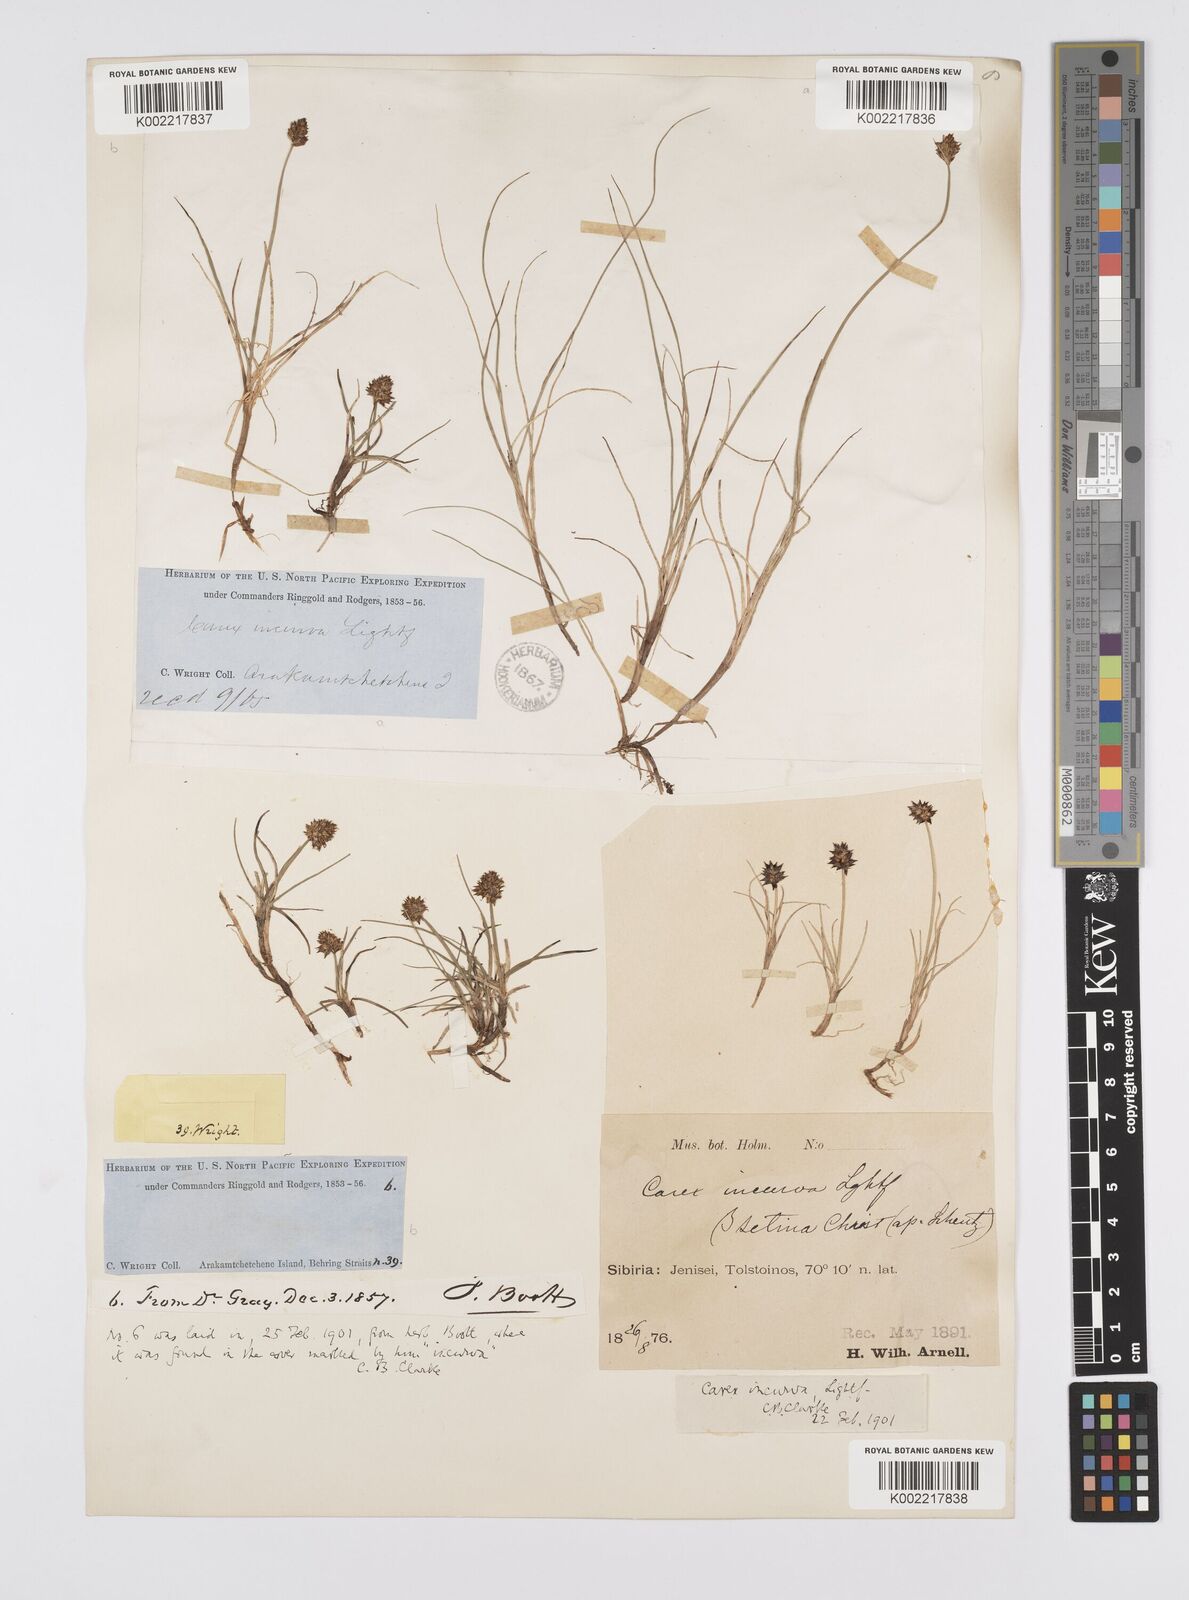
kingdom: Plantae
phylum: Tracheophyta
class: Liliopsida
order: Poales
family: Cyperaceae
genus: Carex
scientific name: Carex maritima
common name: Curved sedge
